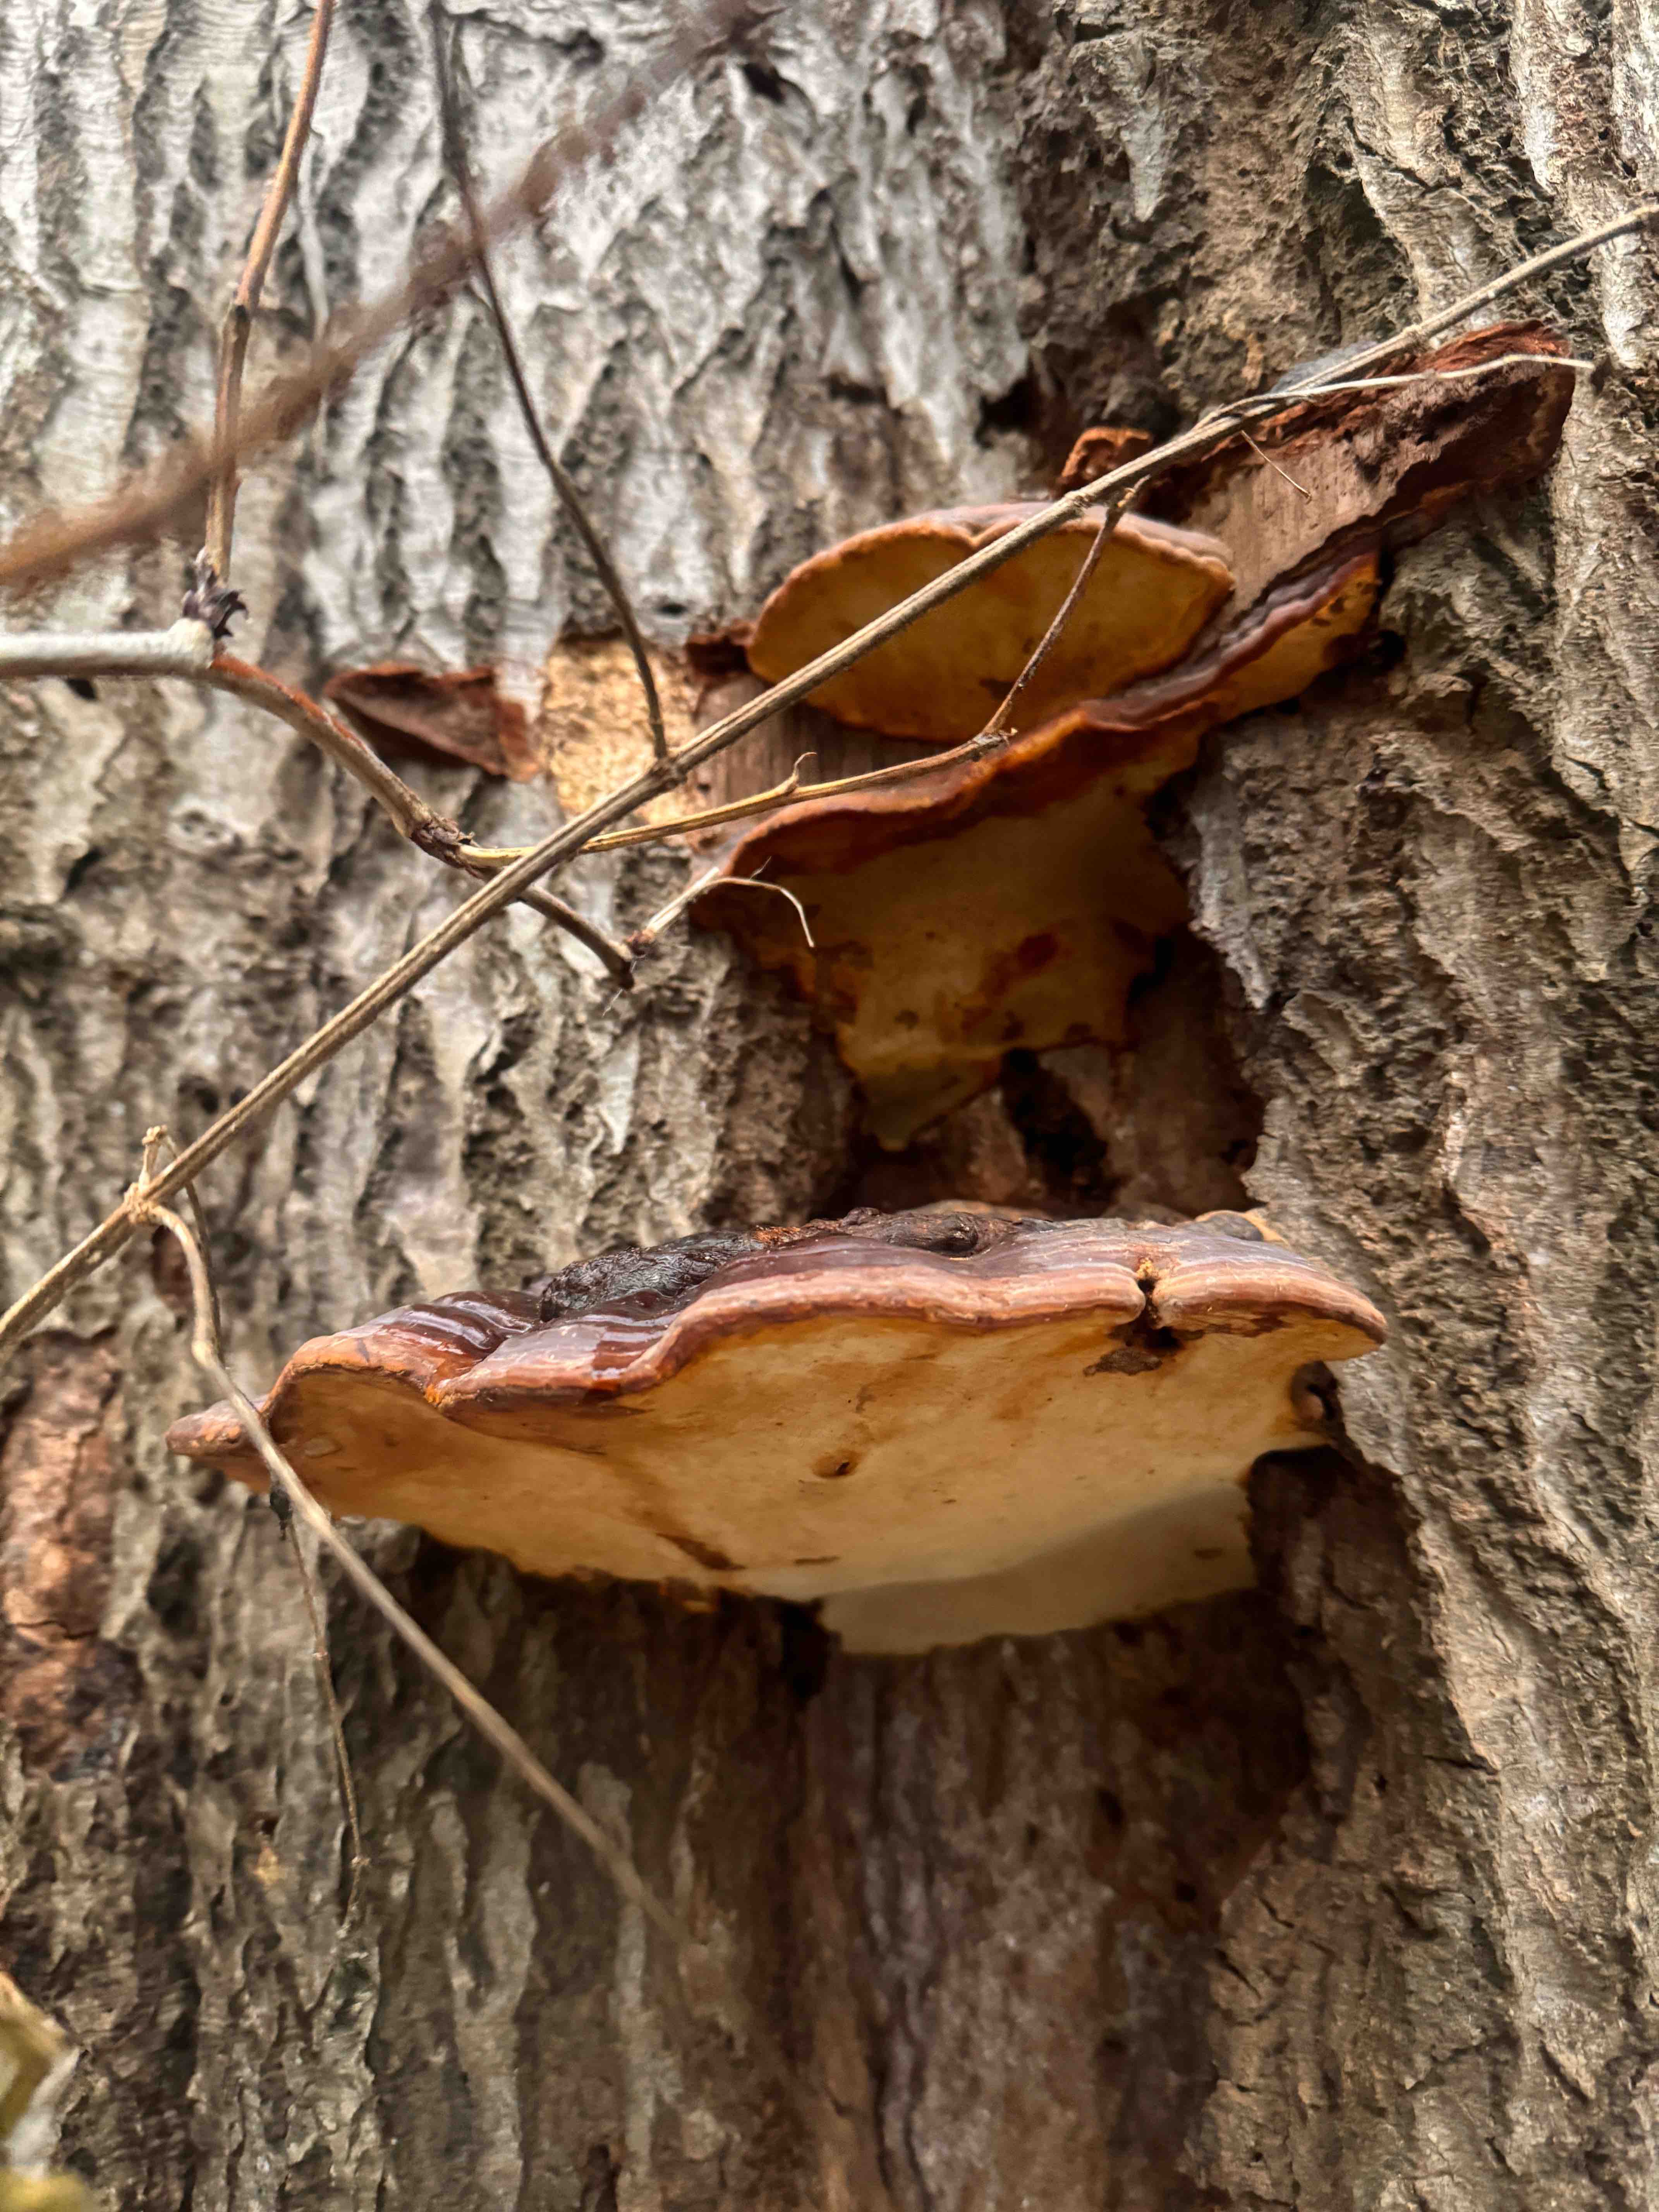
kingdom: Fungi
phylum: Basidiomycota
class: Agaricomycetes
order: Polyporales
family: Polyporaceae
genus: Ganoderma
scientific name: Ganoderma pfeifferi
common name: kobberrød lakporesvamp
